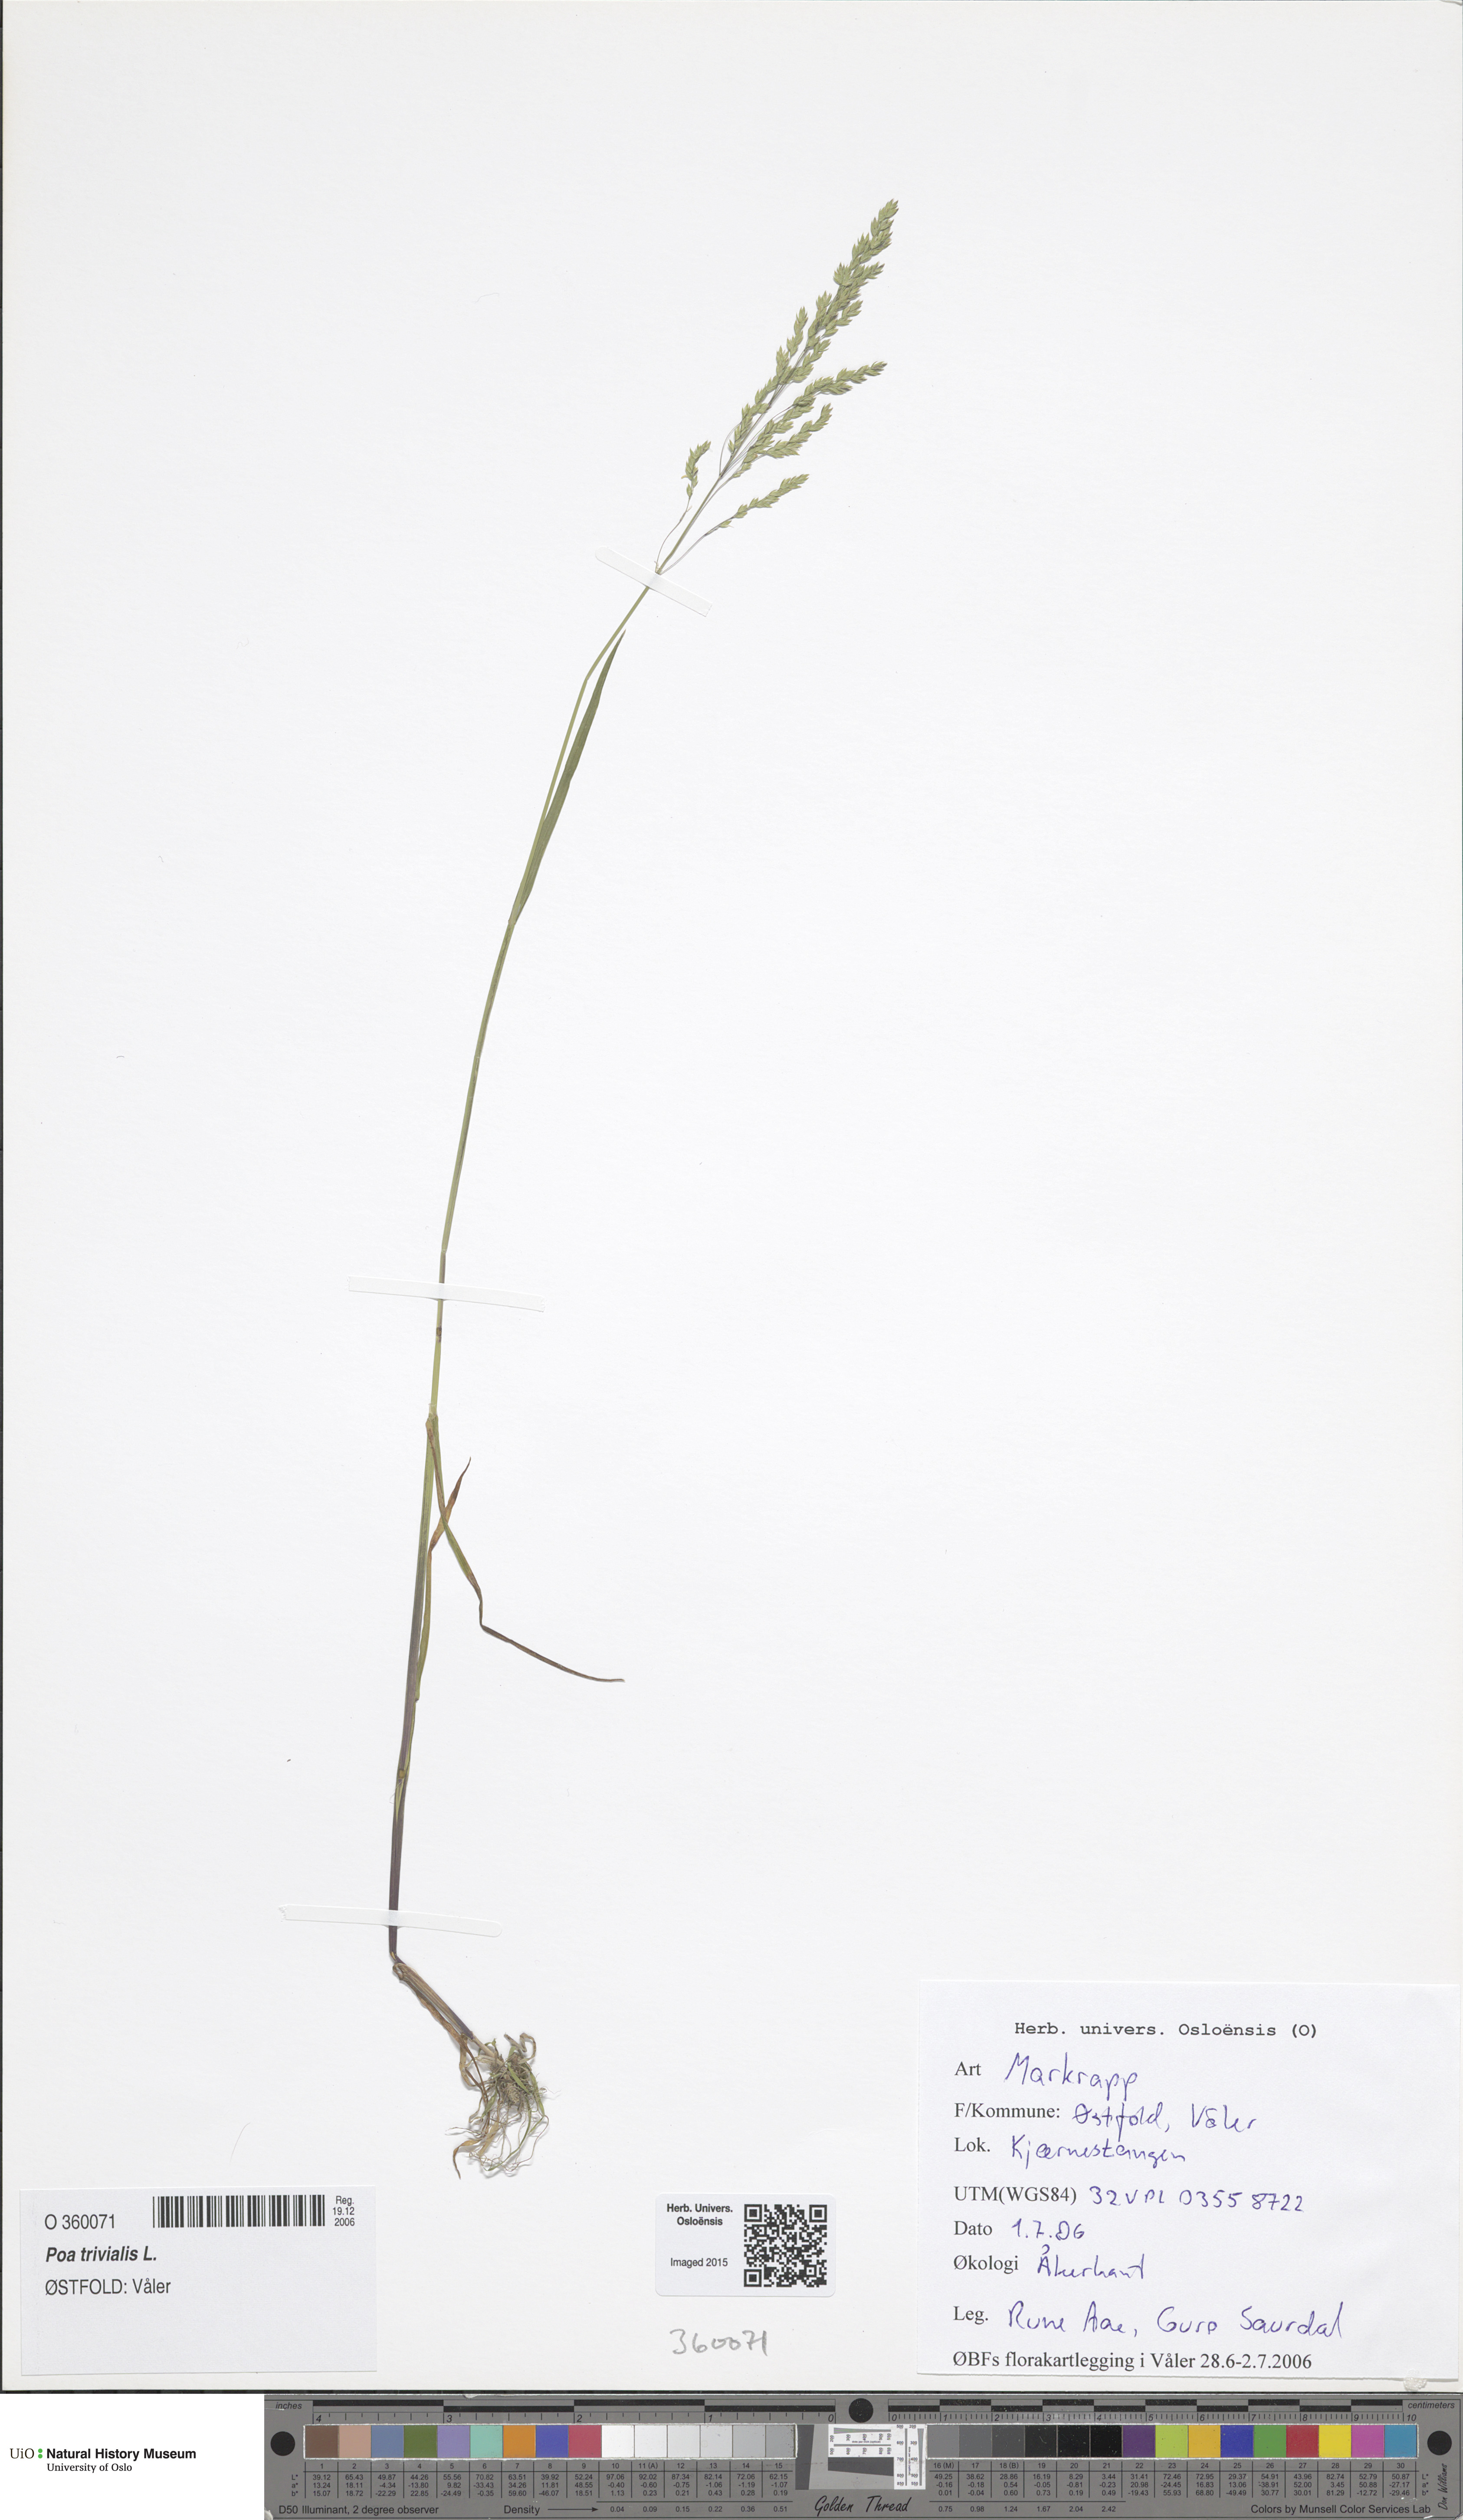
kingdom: Plantae
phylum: Tracheophyta
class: Liliopsida
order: Poales
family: Poaceae
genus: Poa
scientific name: Poa trivialis
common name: Rough bluegrass
